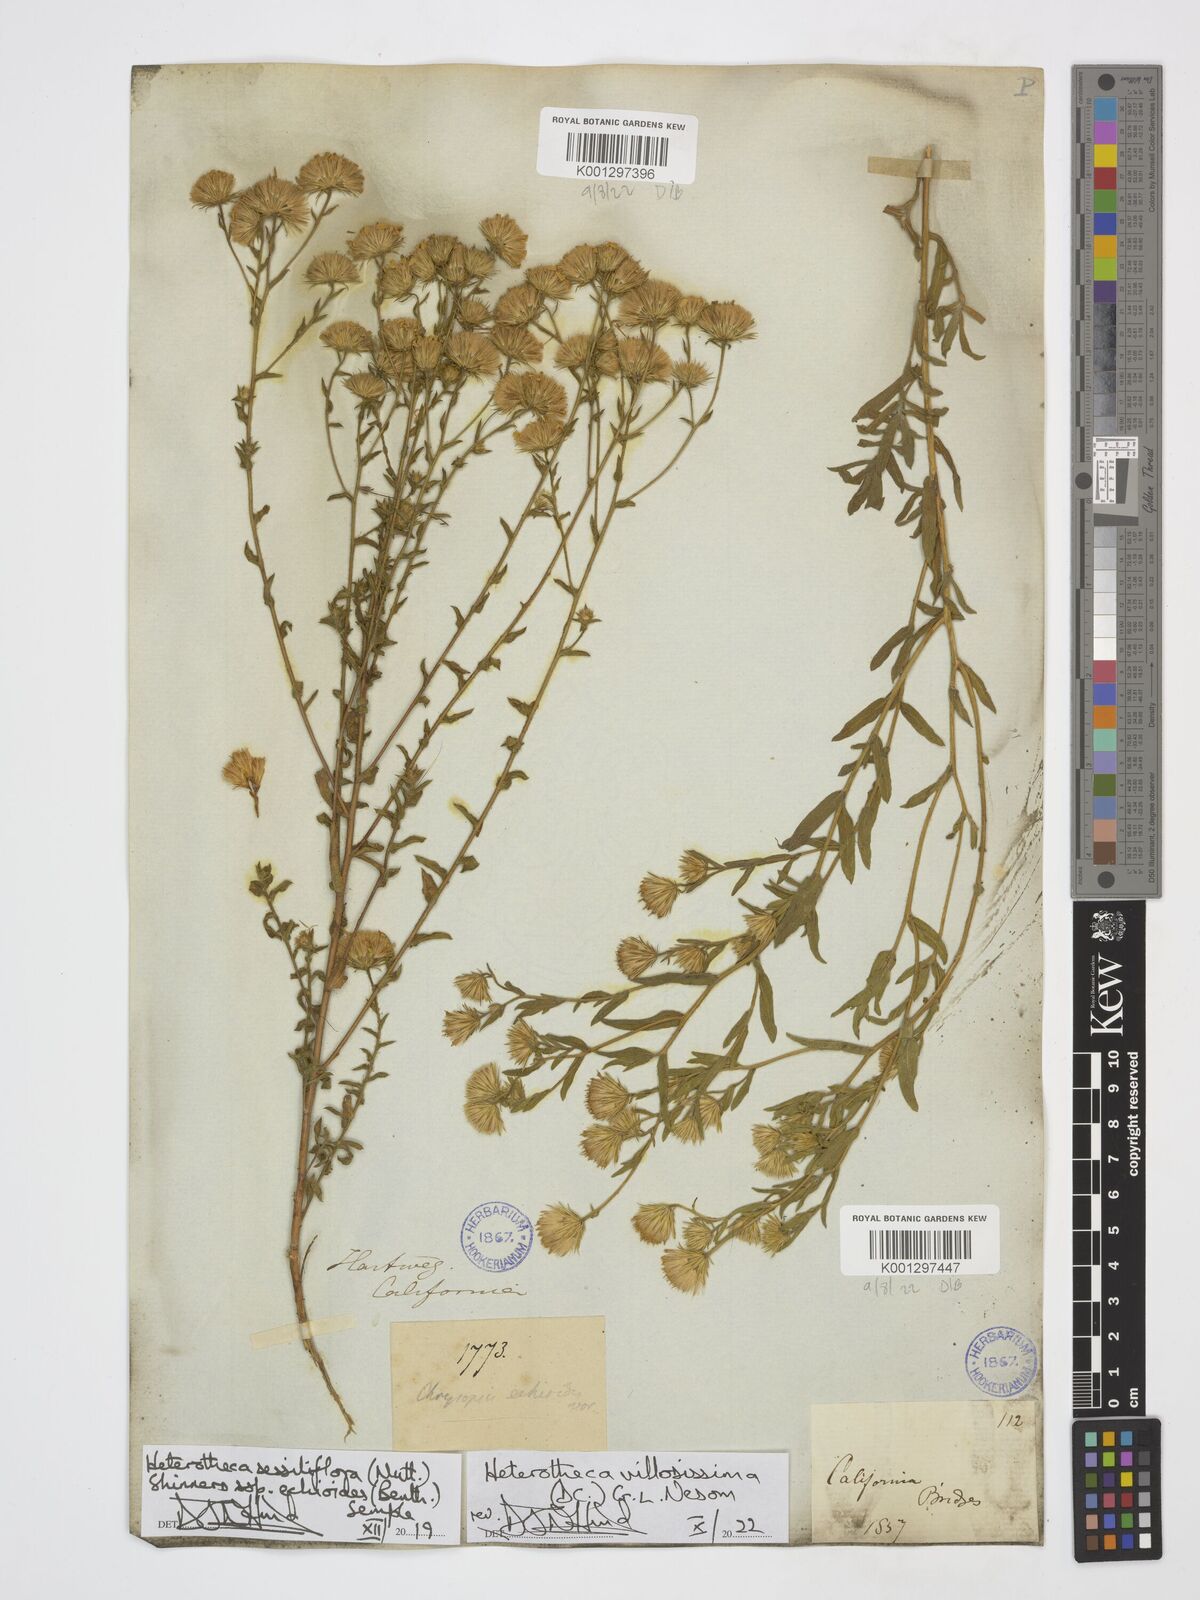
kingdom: Plantae
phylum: Tracheophyta
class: Magnoliopsida
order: Asterales
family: Asteraceae
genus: Heterotheca
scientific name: Heterotheca villosissima
